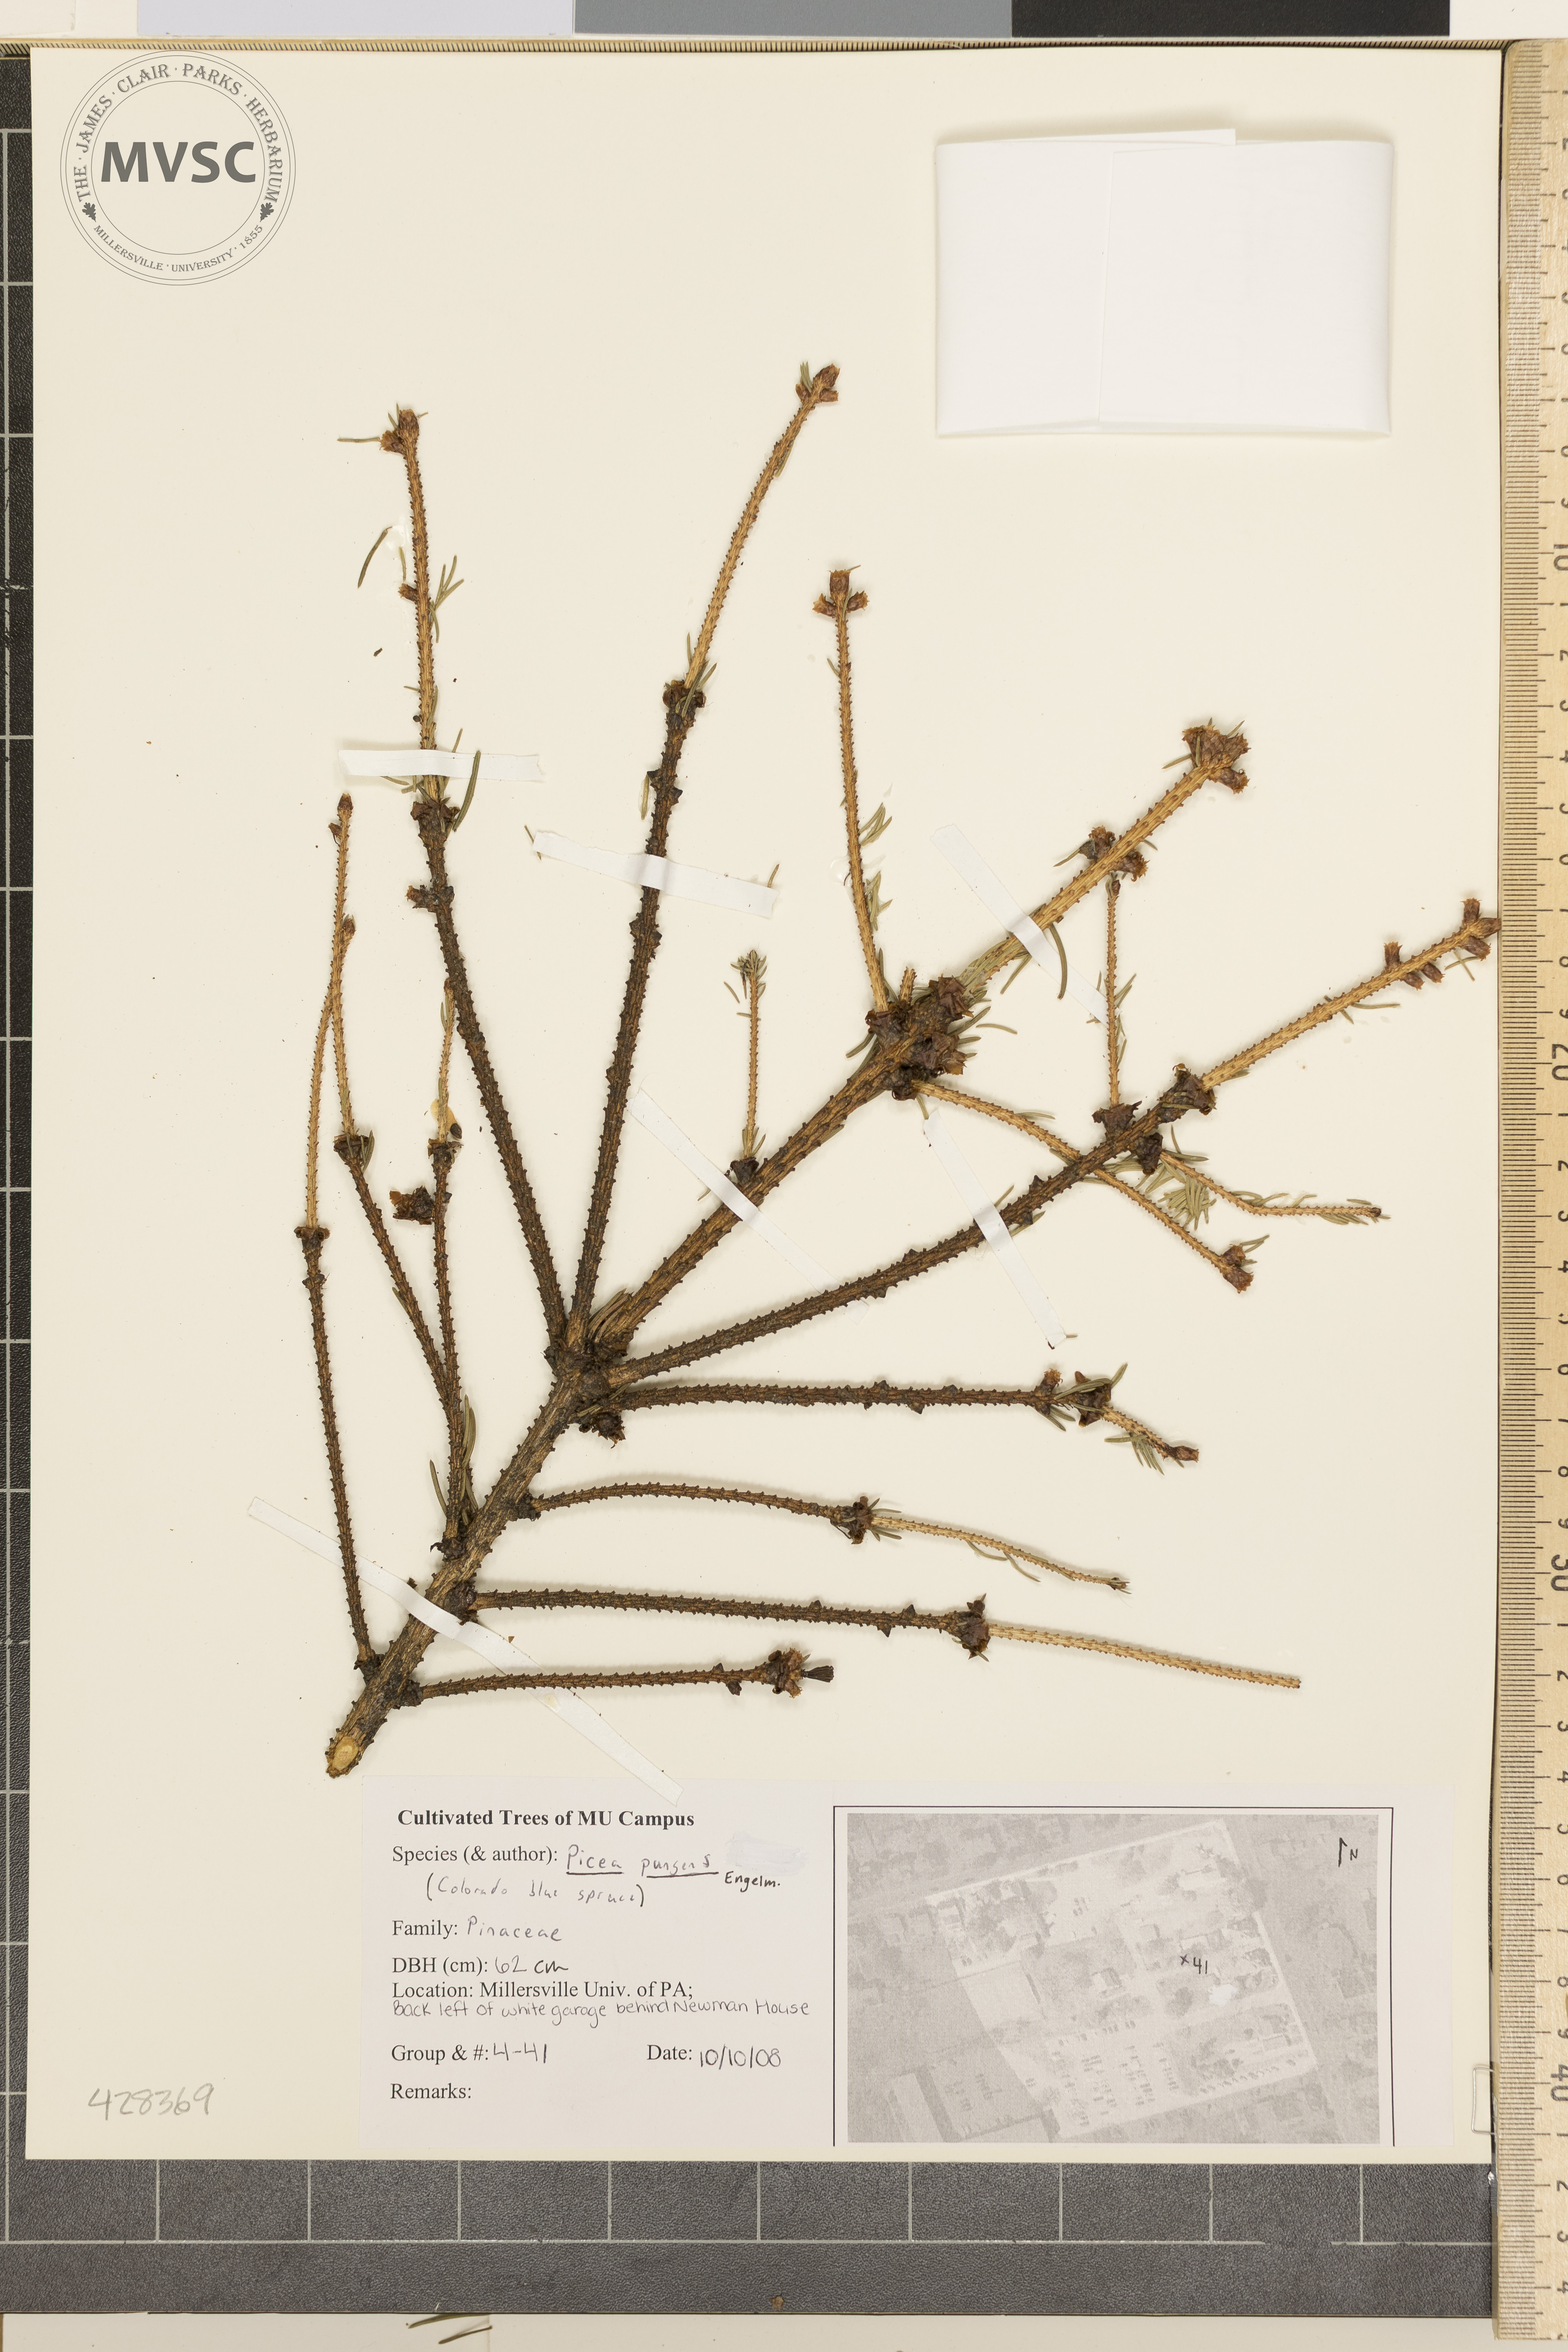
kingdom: Plantae
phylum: Tracheophyta
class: Pinopsida
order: Pinales
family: Pinaceae
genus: Picea
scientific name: Picea pungens
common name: Colorado Blue Spruce
